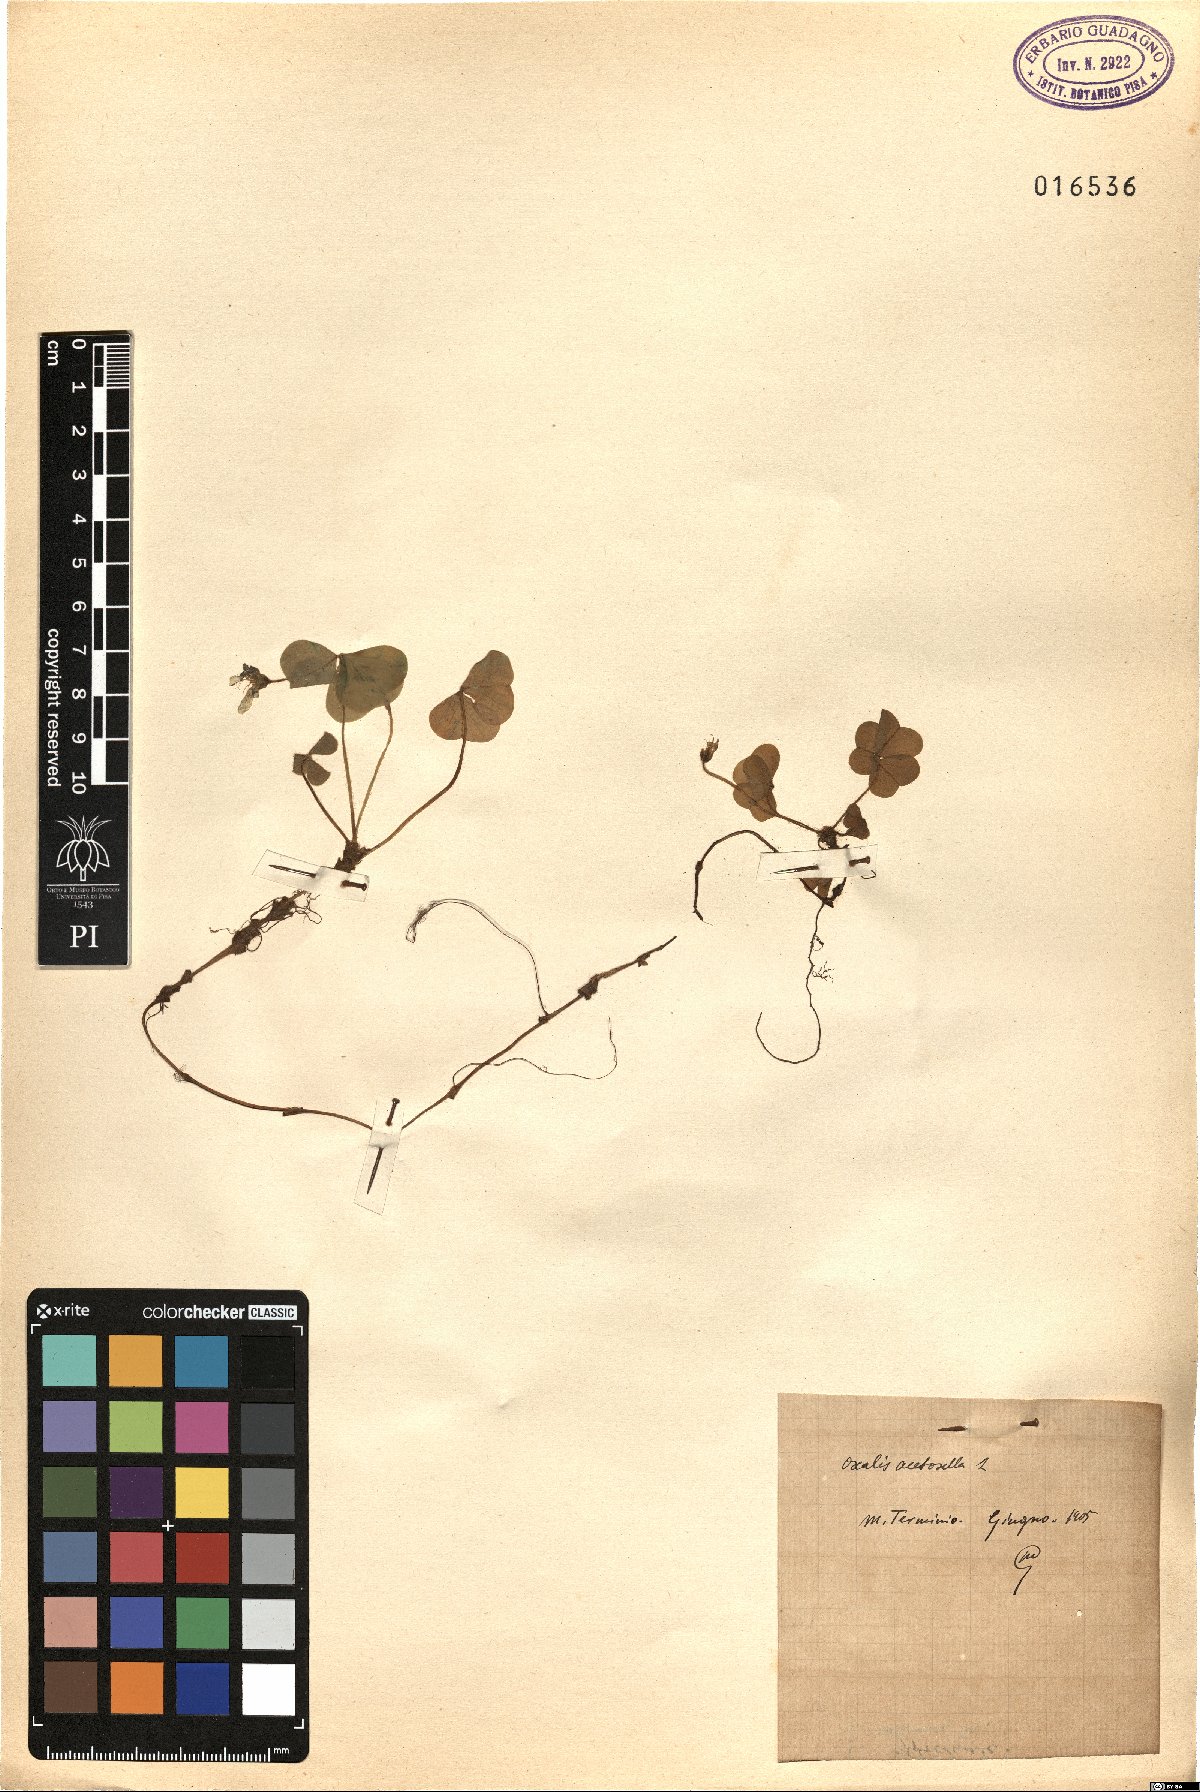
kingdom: Plantae
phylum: Tracheophyta
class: Magnoliopsida
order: Oxalidales
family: Oxalidaceae
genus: Oxalis
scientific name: Oxalis acetosella
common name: Wood-sorrel
